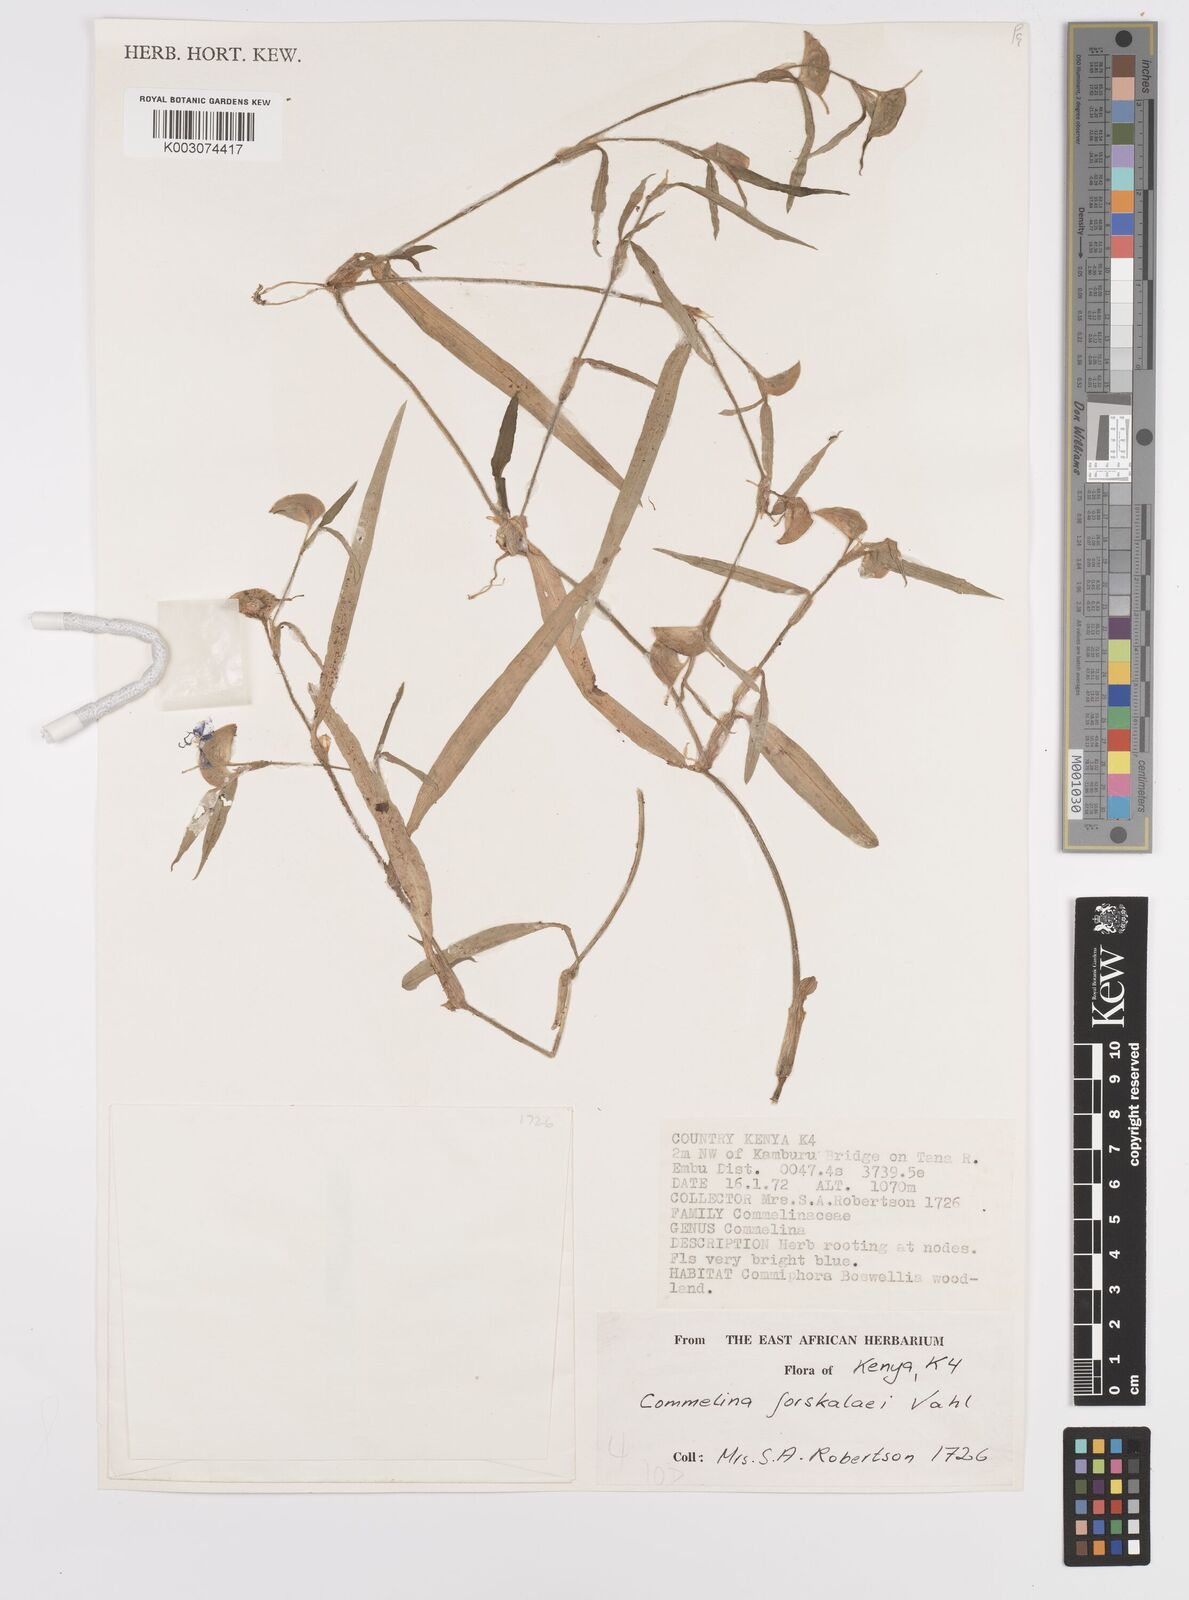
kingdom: Plantae
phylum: Tracheophyta
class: Liliopsida
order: Commelinales
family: Commelinaceae
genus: Commelina
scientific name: Commelina forskaolii
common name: Rat's ear
